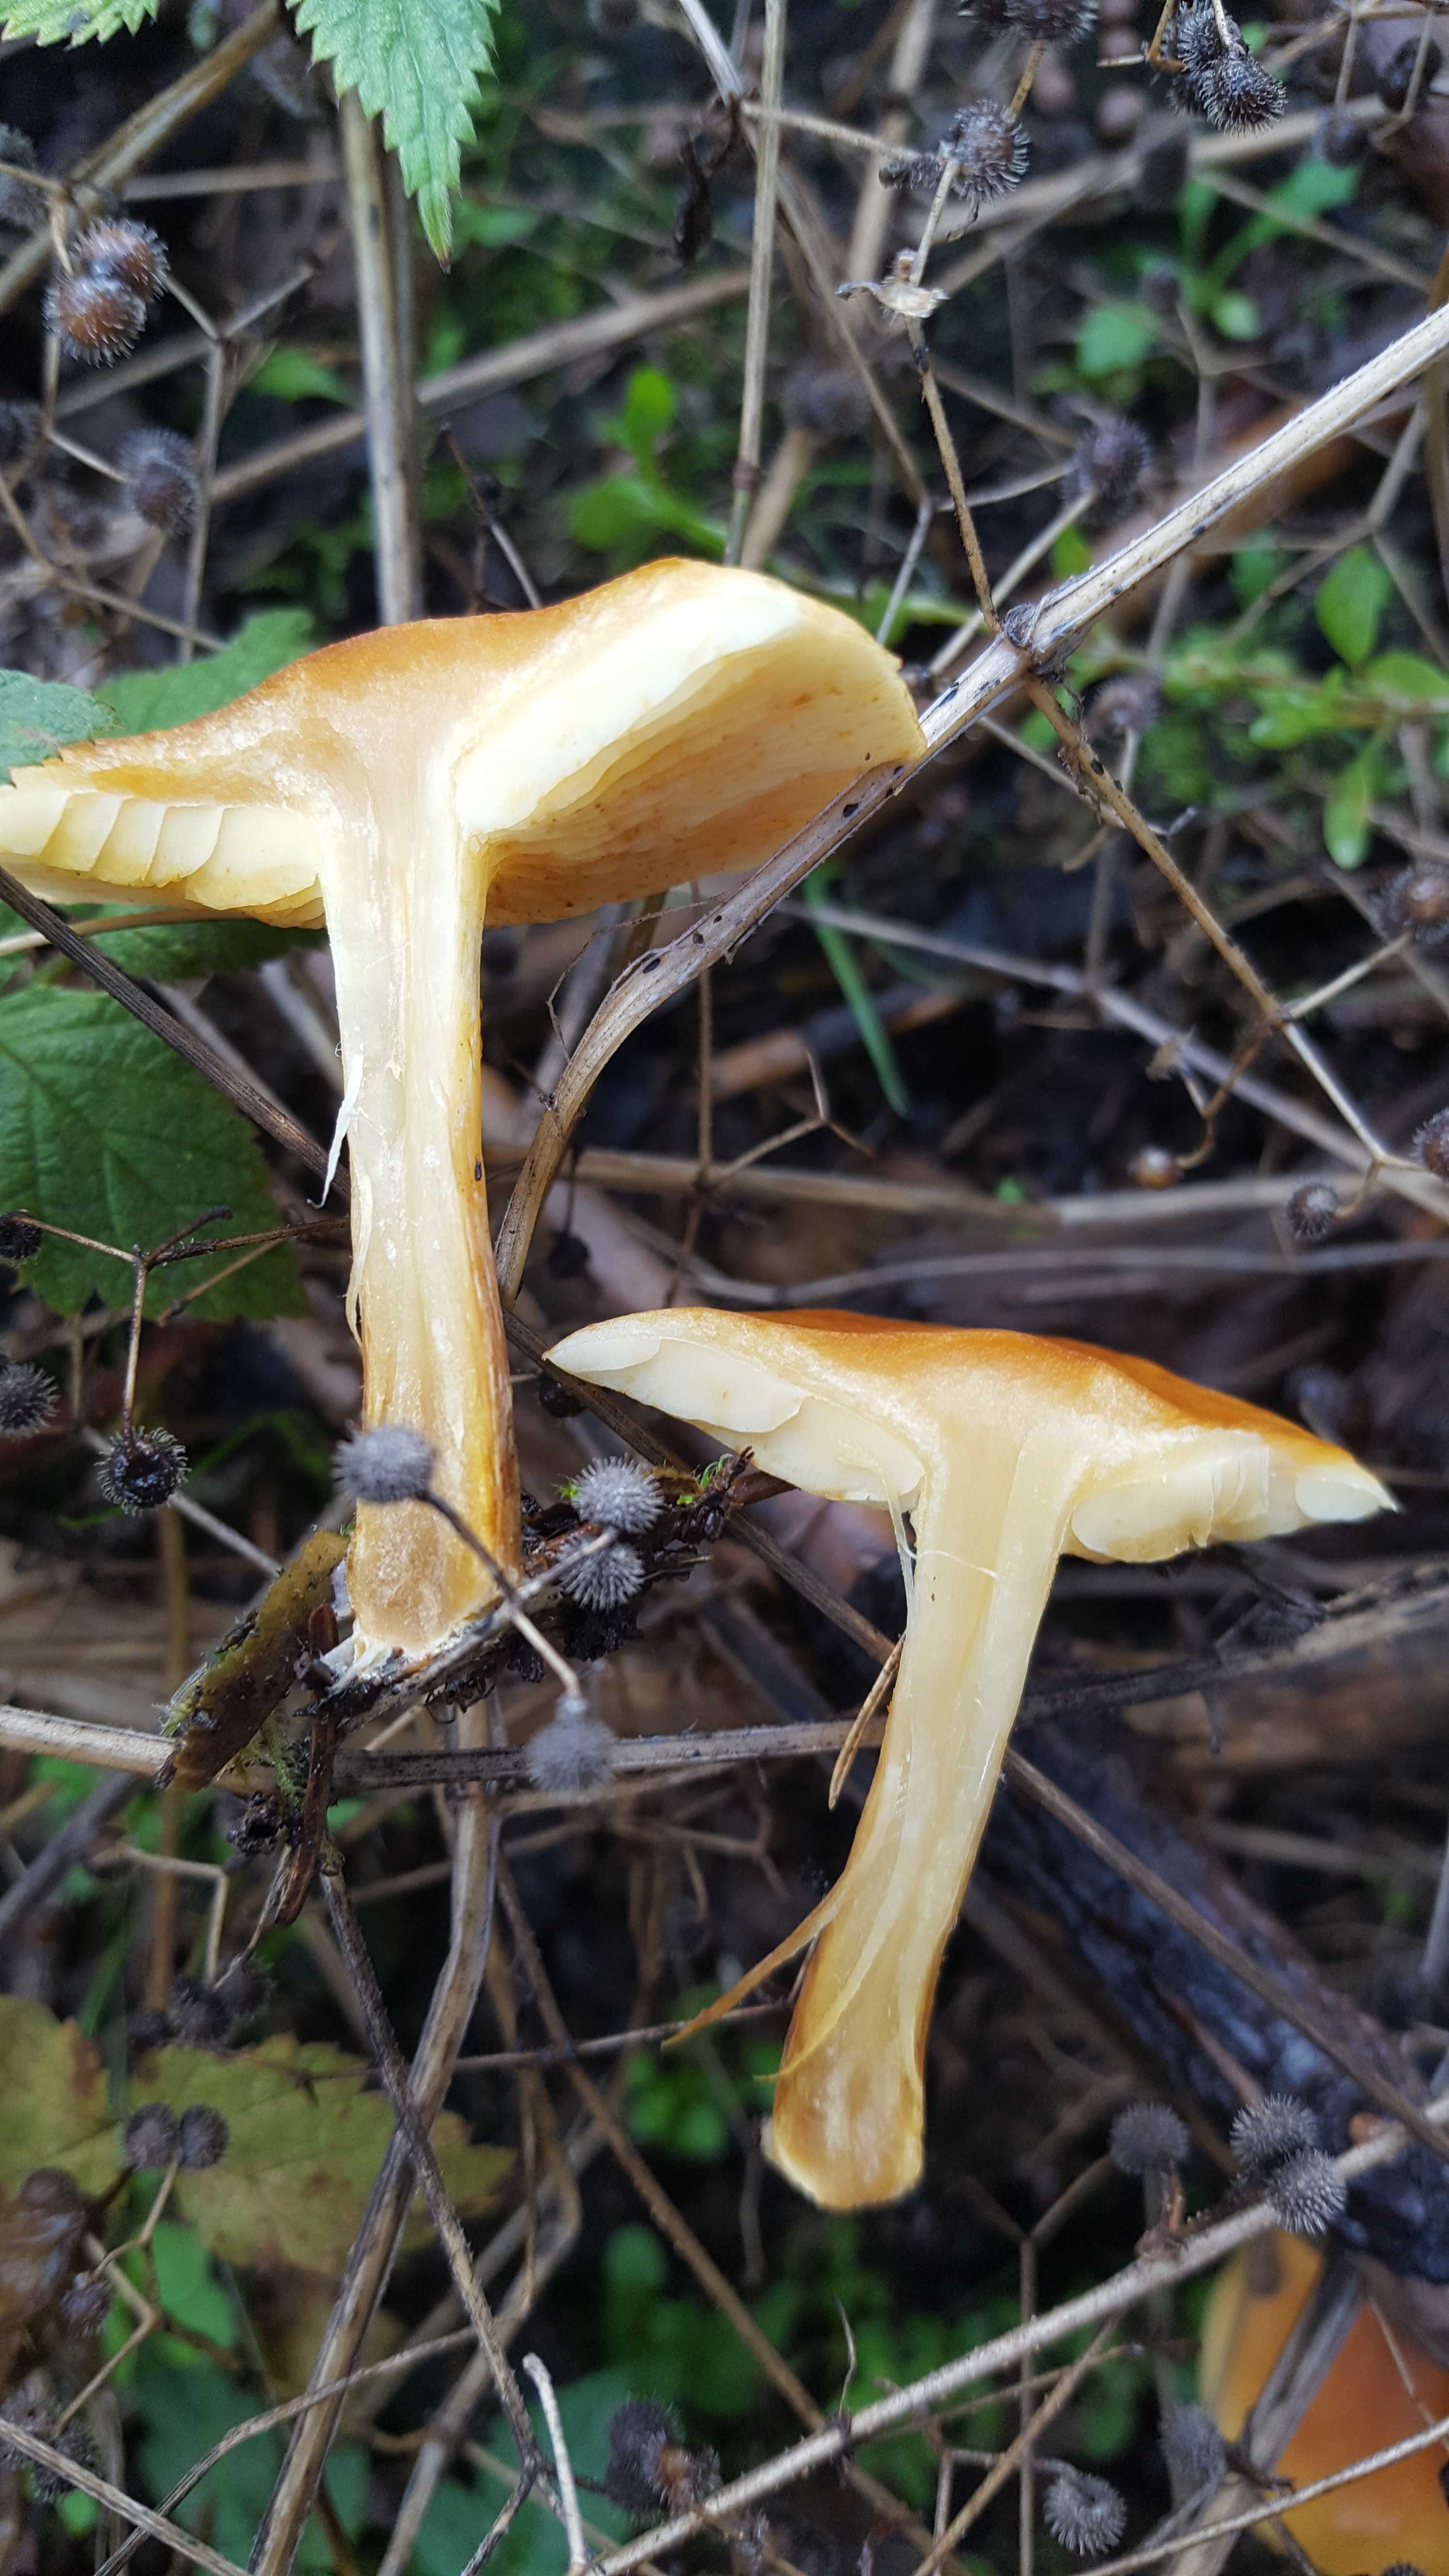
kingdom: Fungi
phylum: Basidiomycota
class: Agaricomycetes
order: Agaricales
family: Hymenogastraceae
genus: Gymnopilus
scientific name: Gymnopilus penetrans
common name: plettet flammehat
